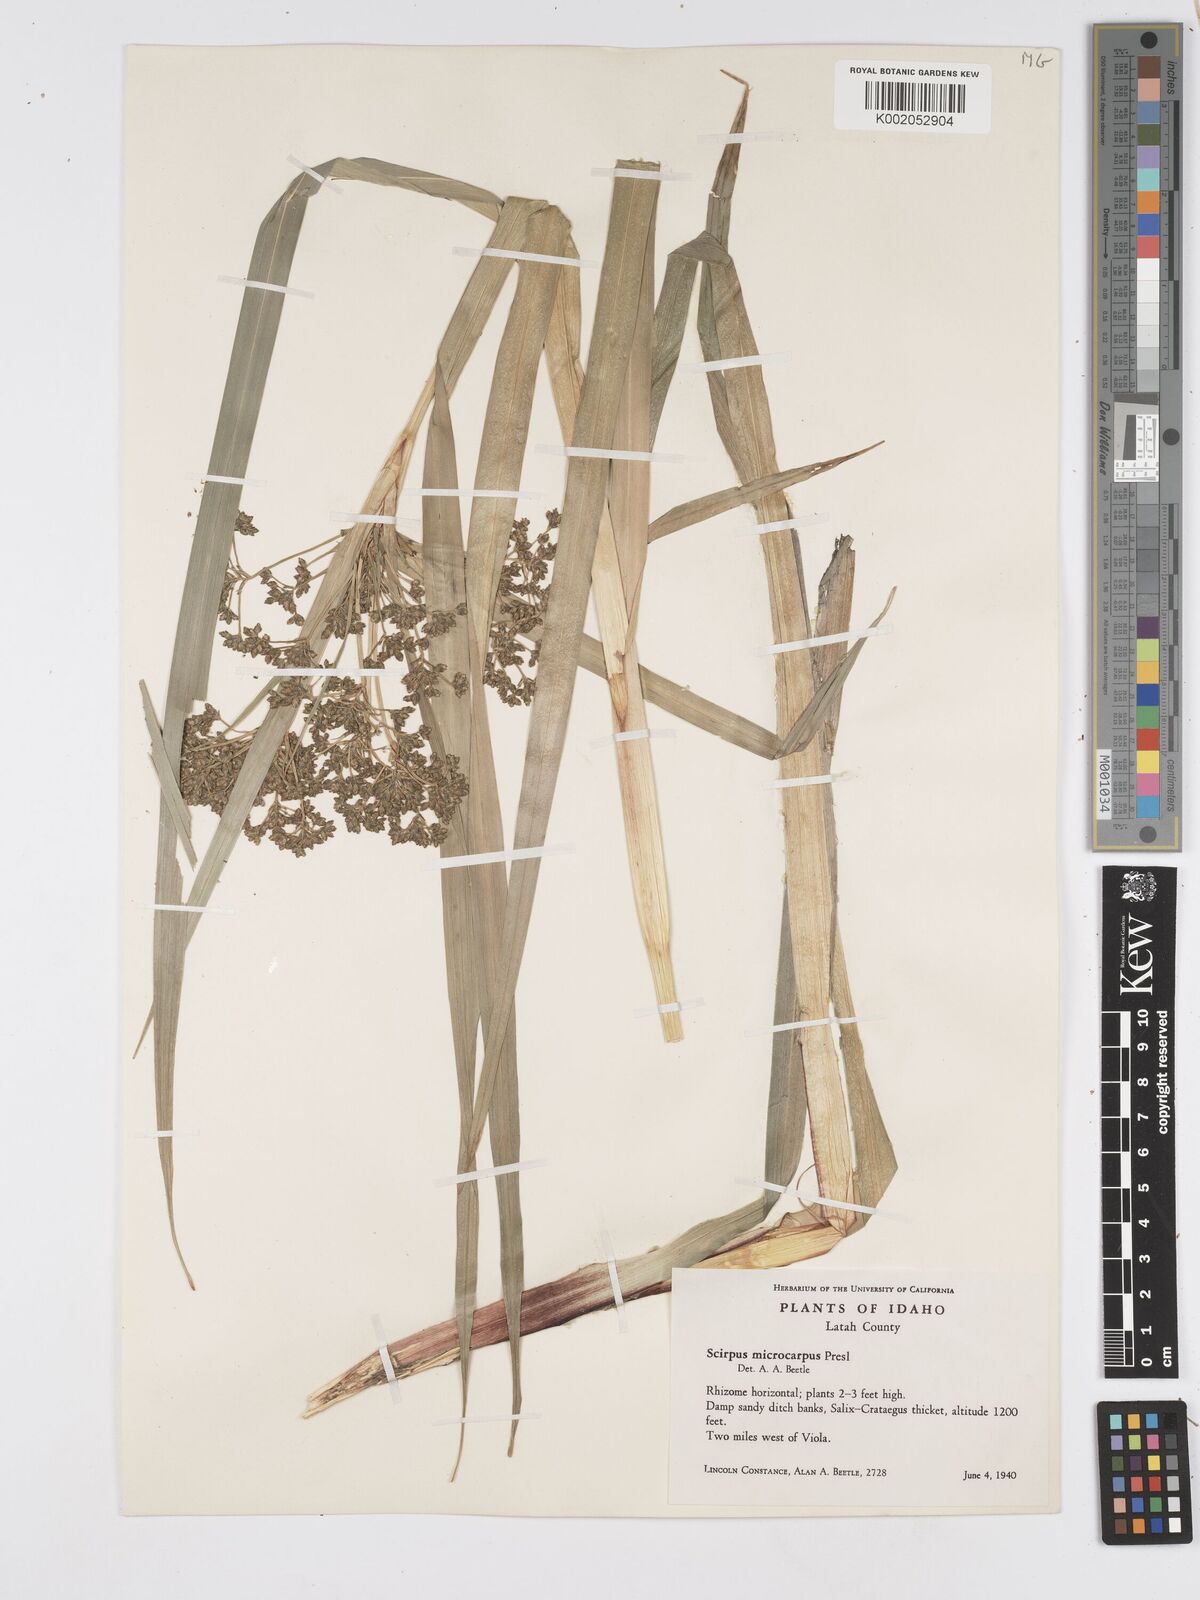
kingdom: Plantae
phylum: Tracheophyta
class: Liliopsida
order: Poales
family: Cyperaceae
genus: Scirpus
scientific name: Scirpus sylvaticus
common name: Wood club-rush
